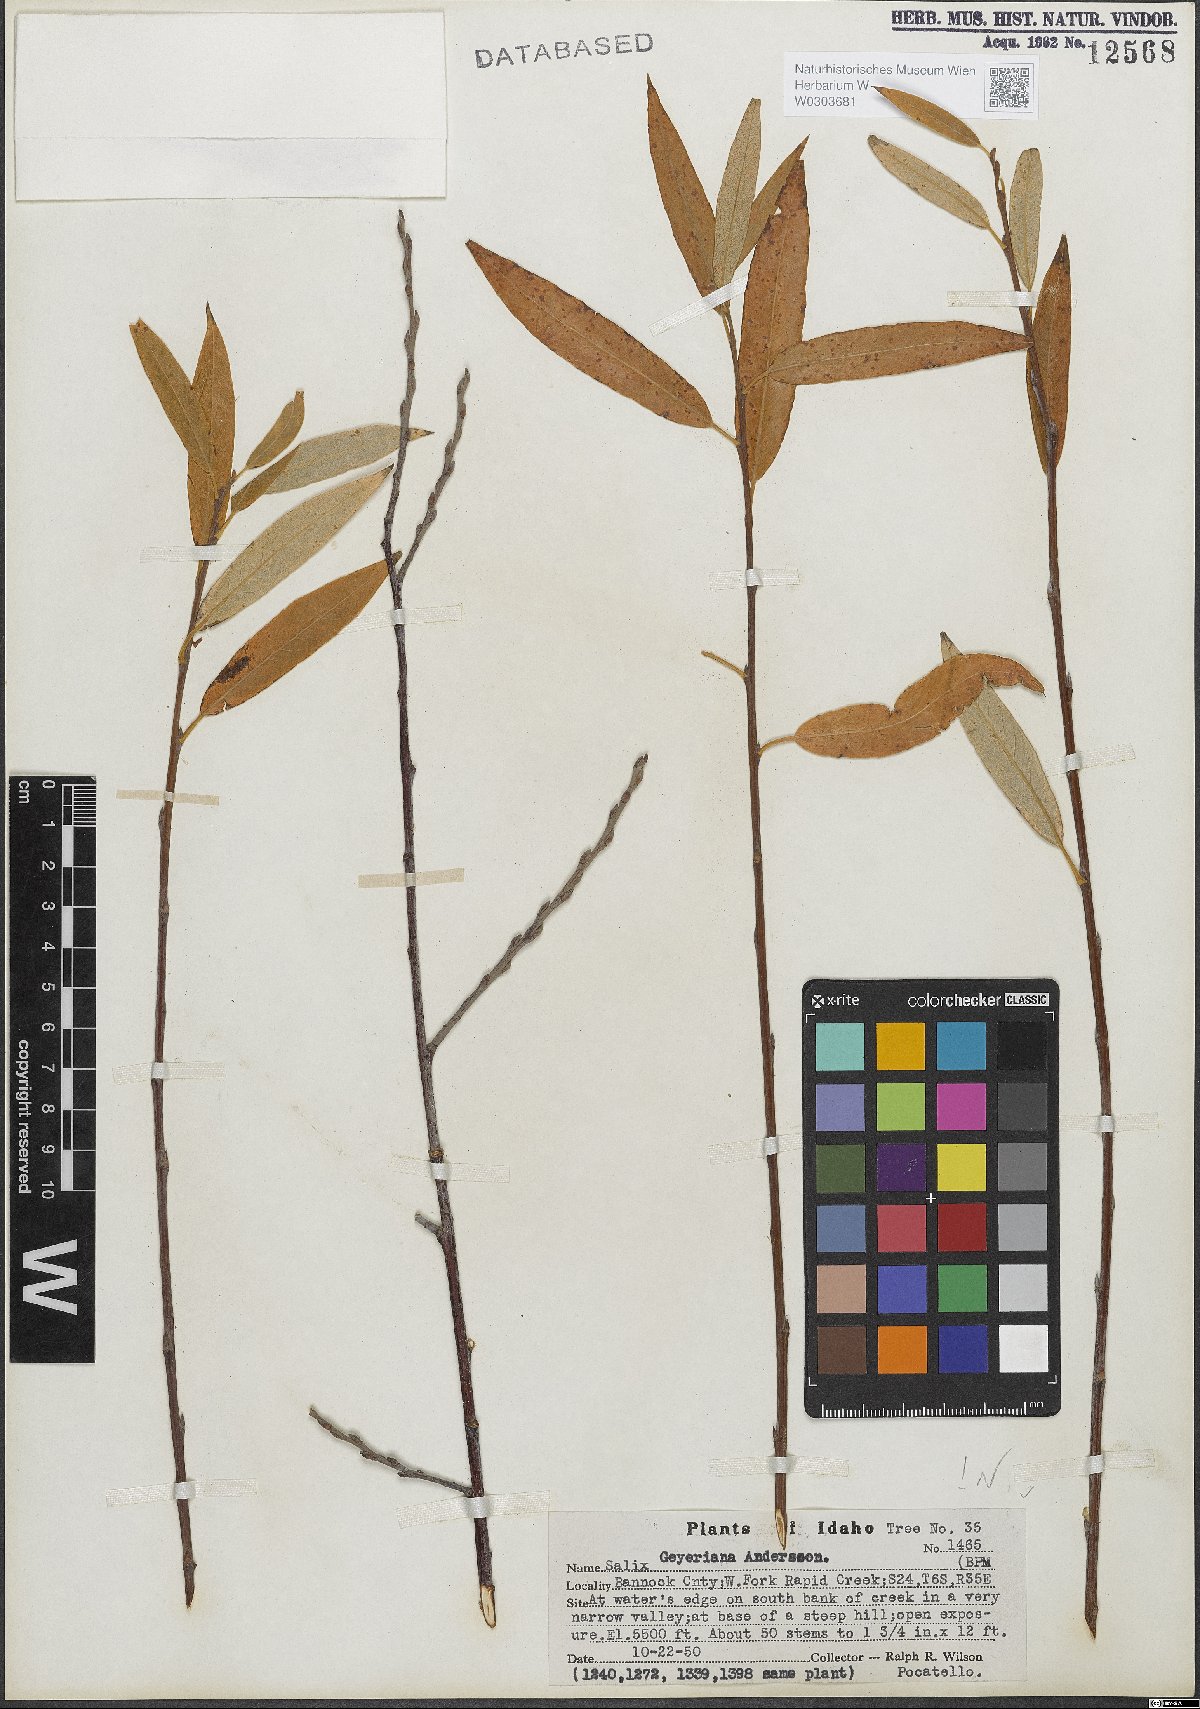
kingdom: Plantae
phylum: Tracheophyta
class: Magnoliopsida
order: Malpighiales
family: Salicaceae
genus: Salix
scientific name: Salix geyeriana
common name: Geyer's willow
